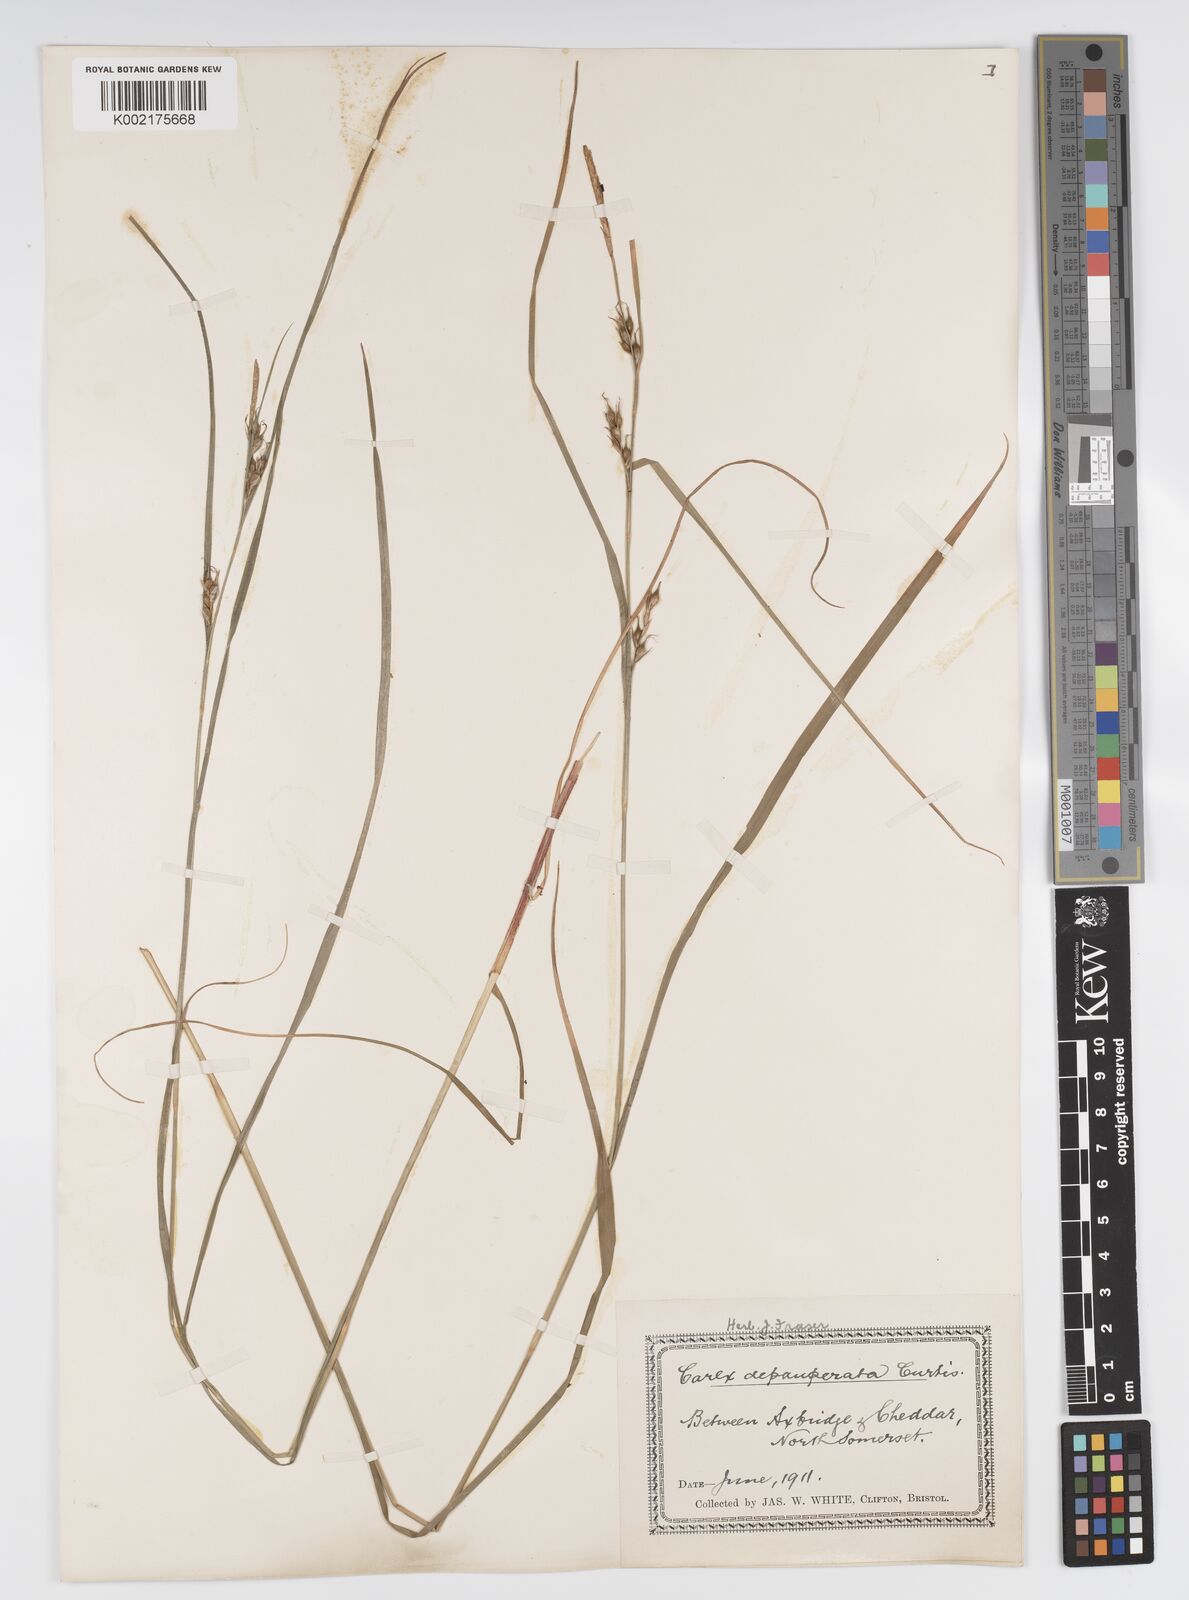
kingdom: Plantae
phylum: Tracheophyta
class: Liliopsida
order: Poales
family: Cyperaceae
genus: Carex
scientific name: Carex depauperata
